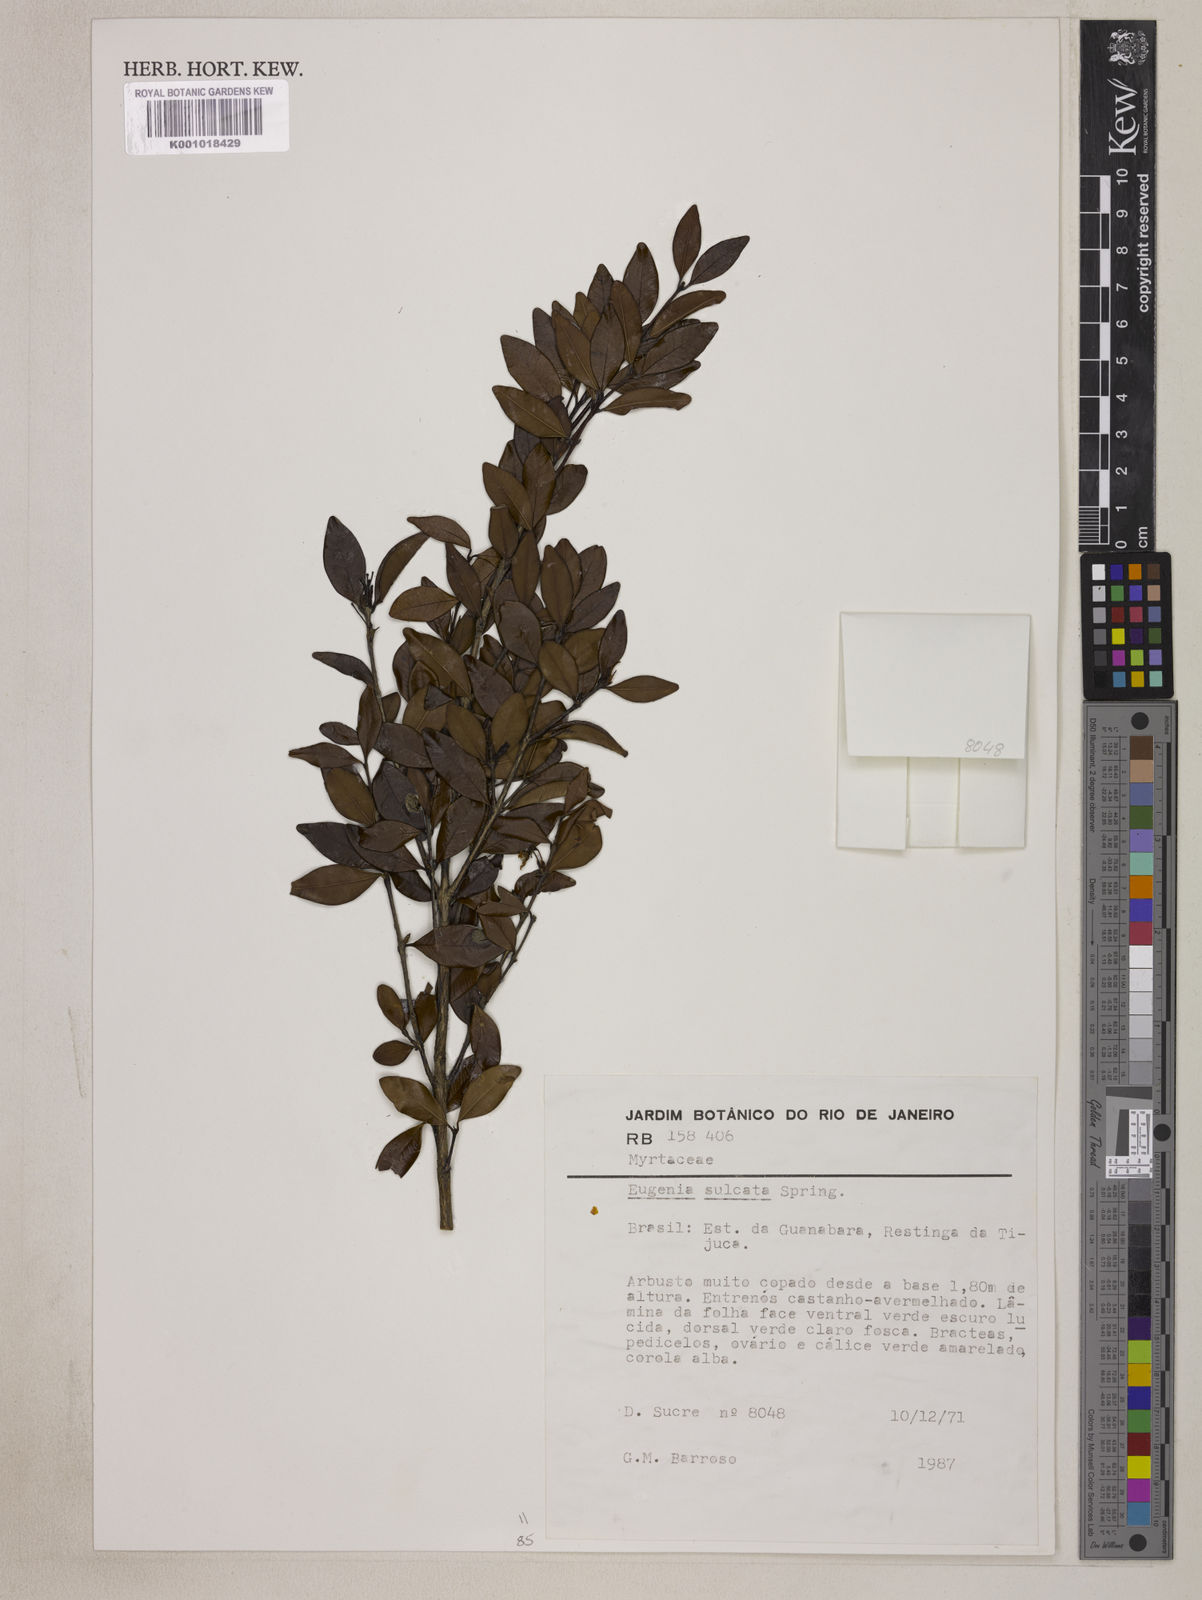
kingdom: Plantae
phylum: Tracheophyta
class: Magnoliopsida
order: Myrtales
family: Myrtaceae
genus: Eugenia
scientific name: Eugenia sulcata
